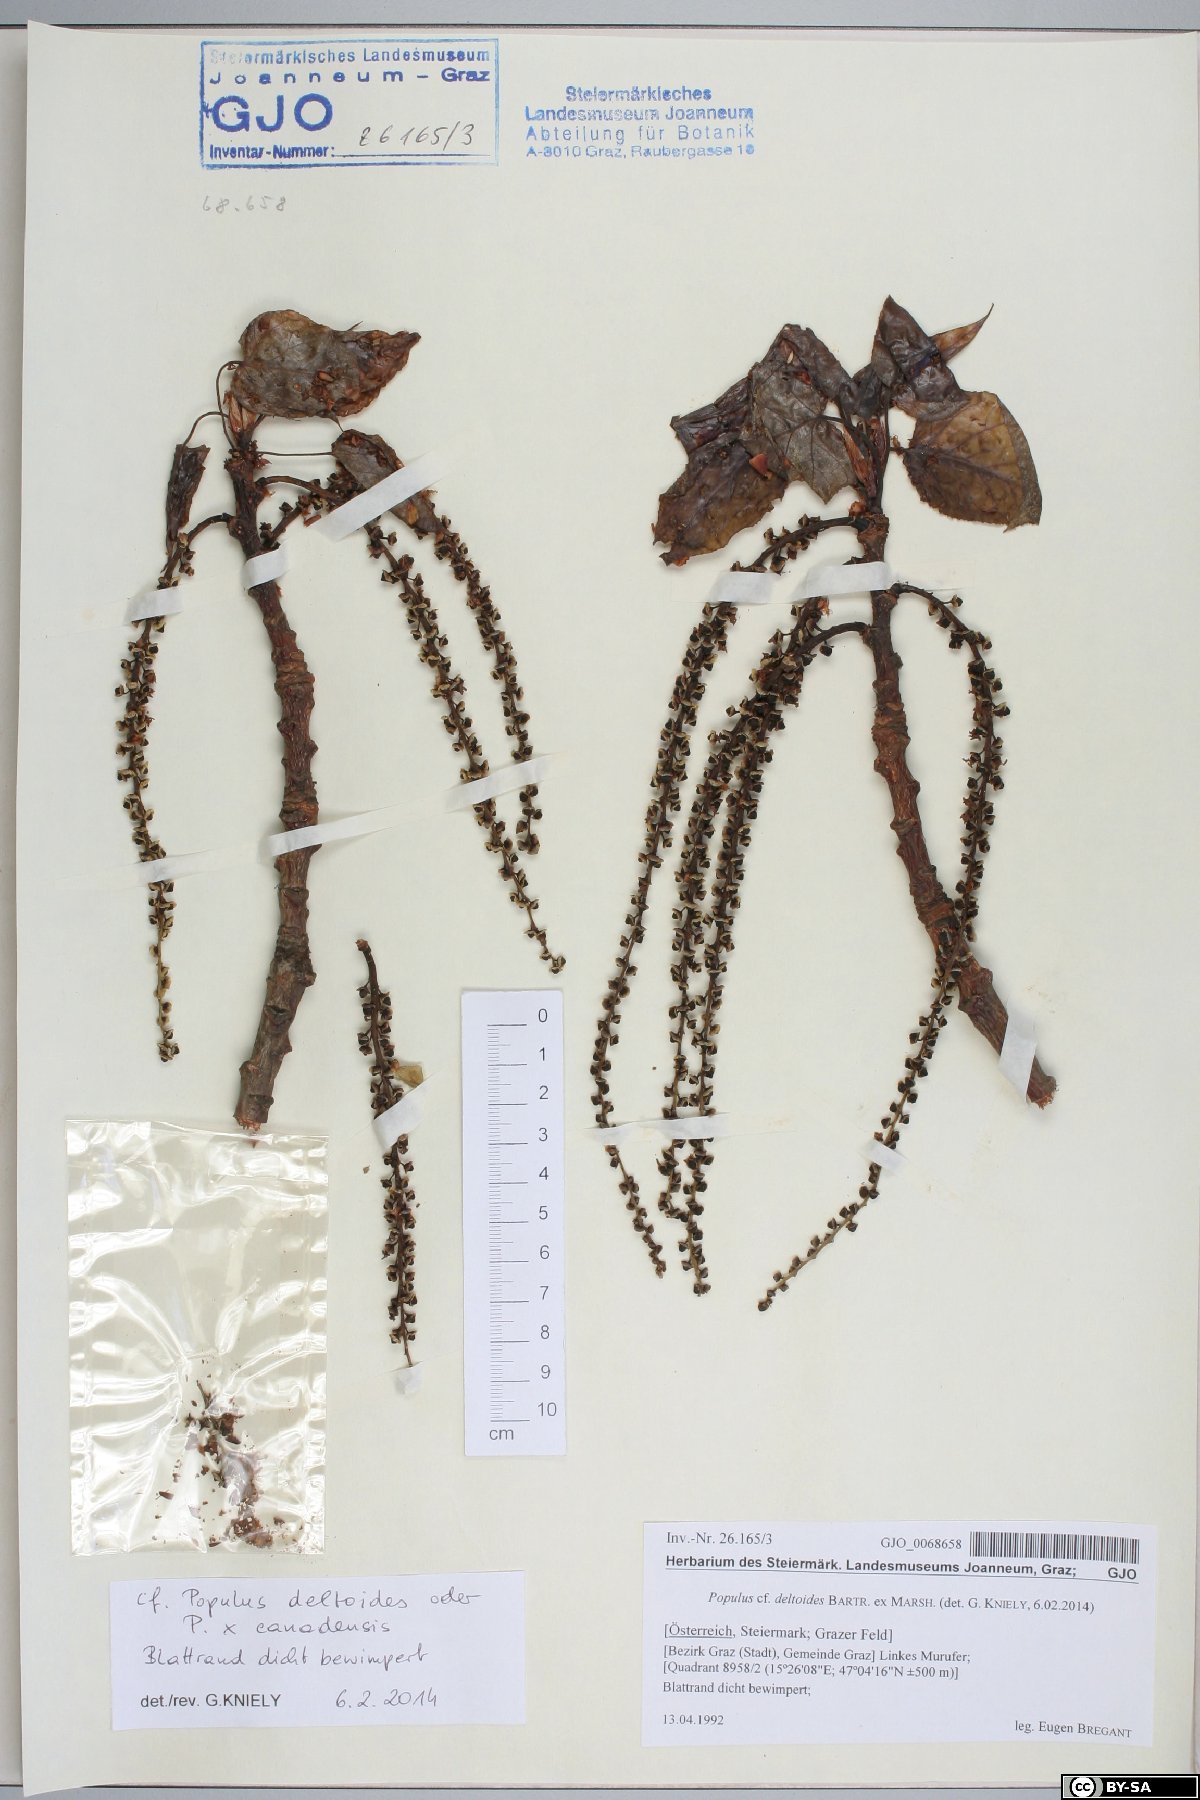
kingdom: Plantae
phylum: Tracheophyta
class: Magnoliopsida
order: Malpighiales
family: Salicaceae
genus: Populus
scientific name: Populus deltoides
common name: Eastern cottonwood
